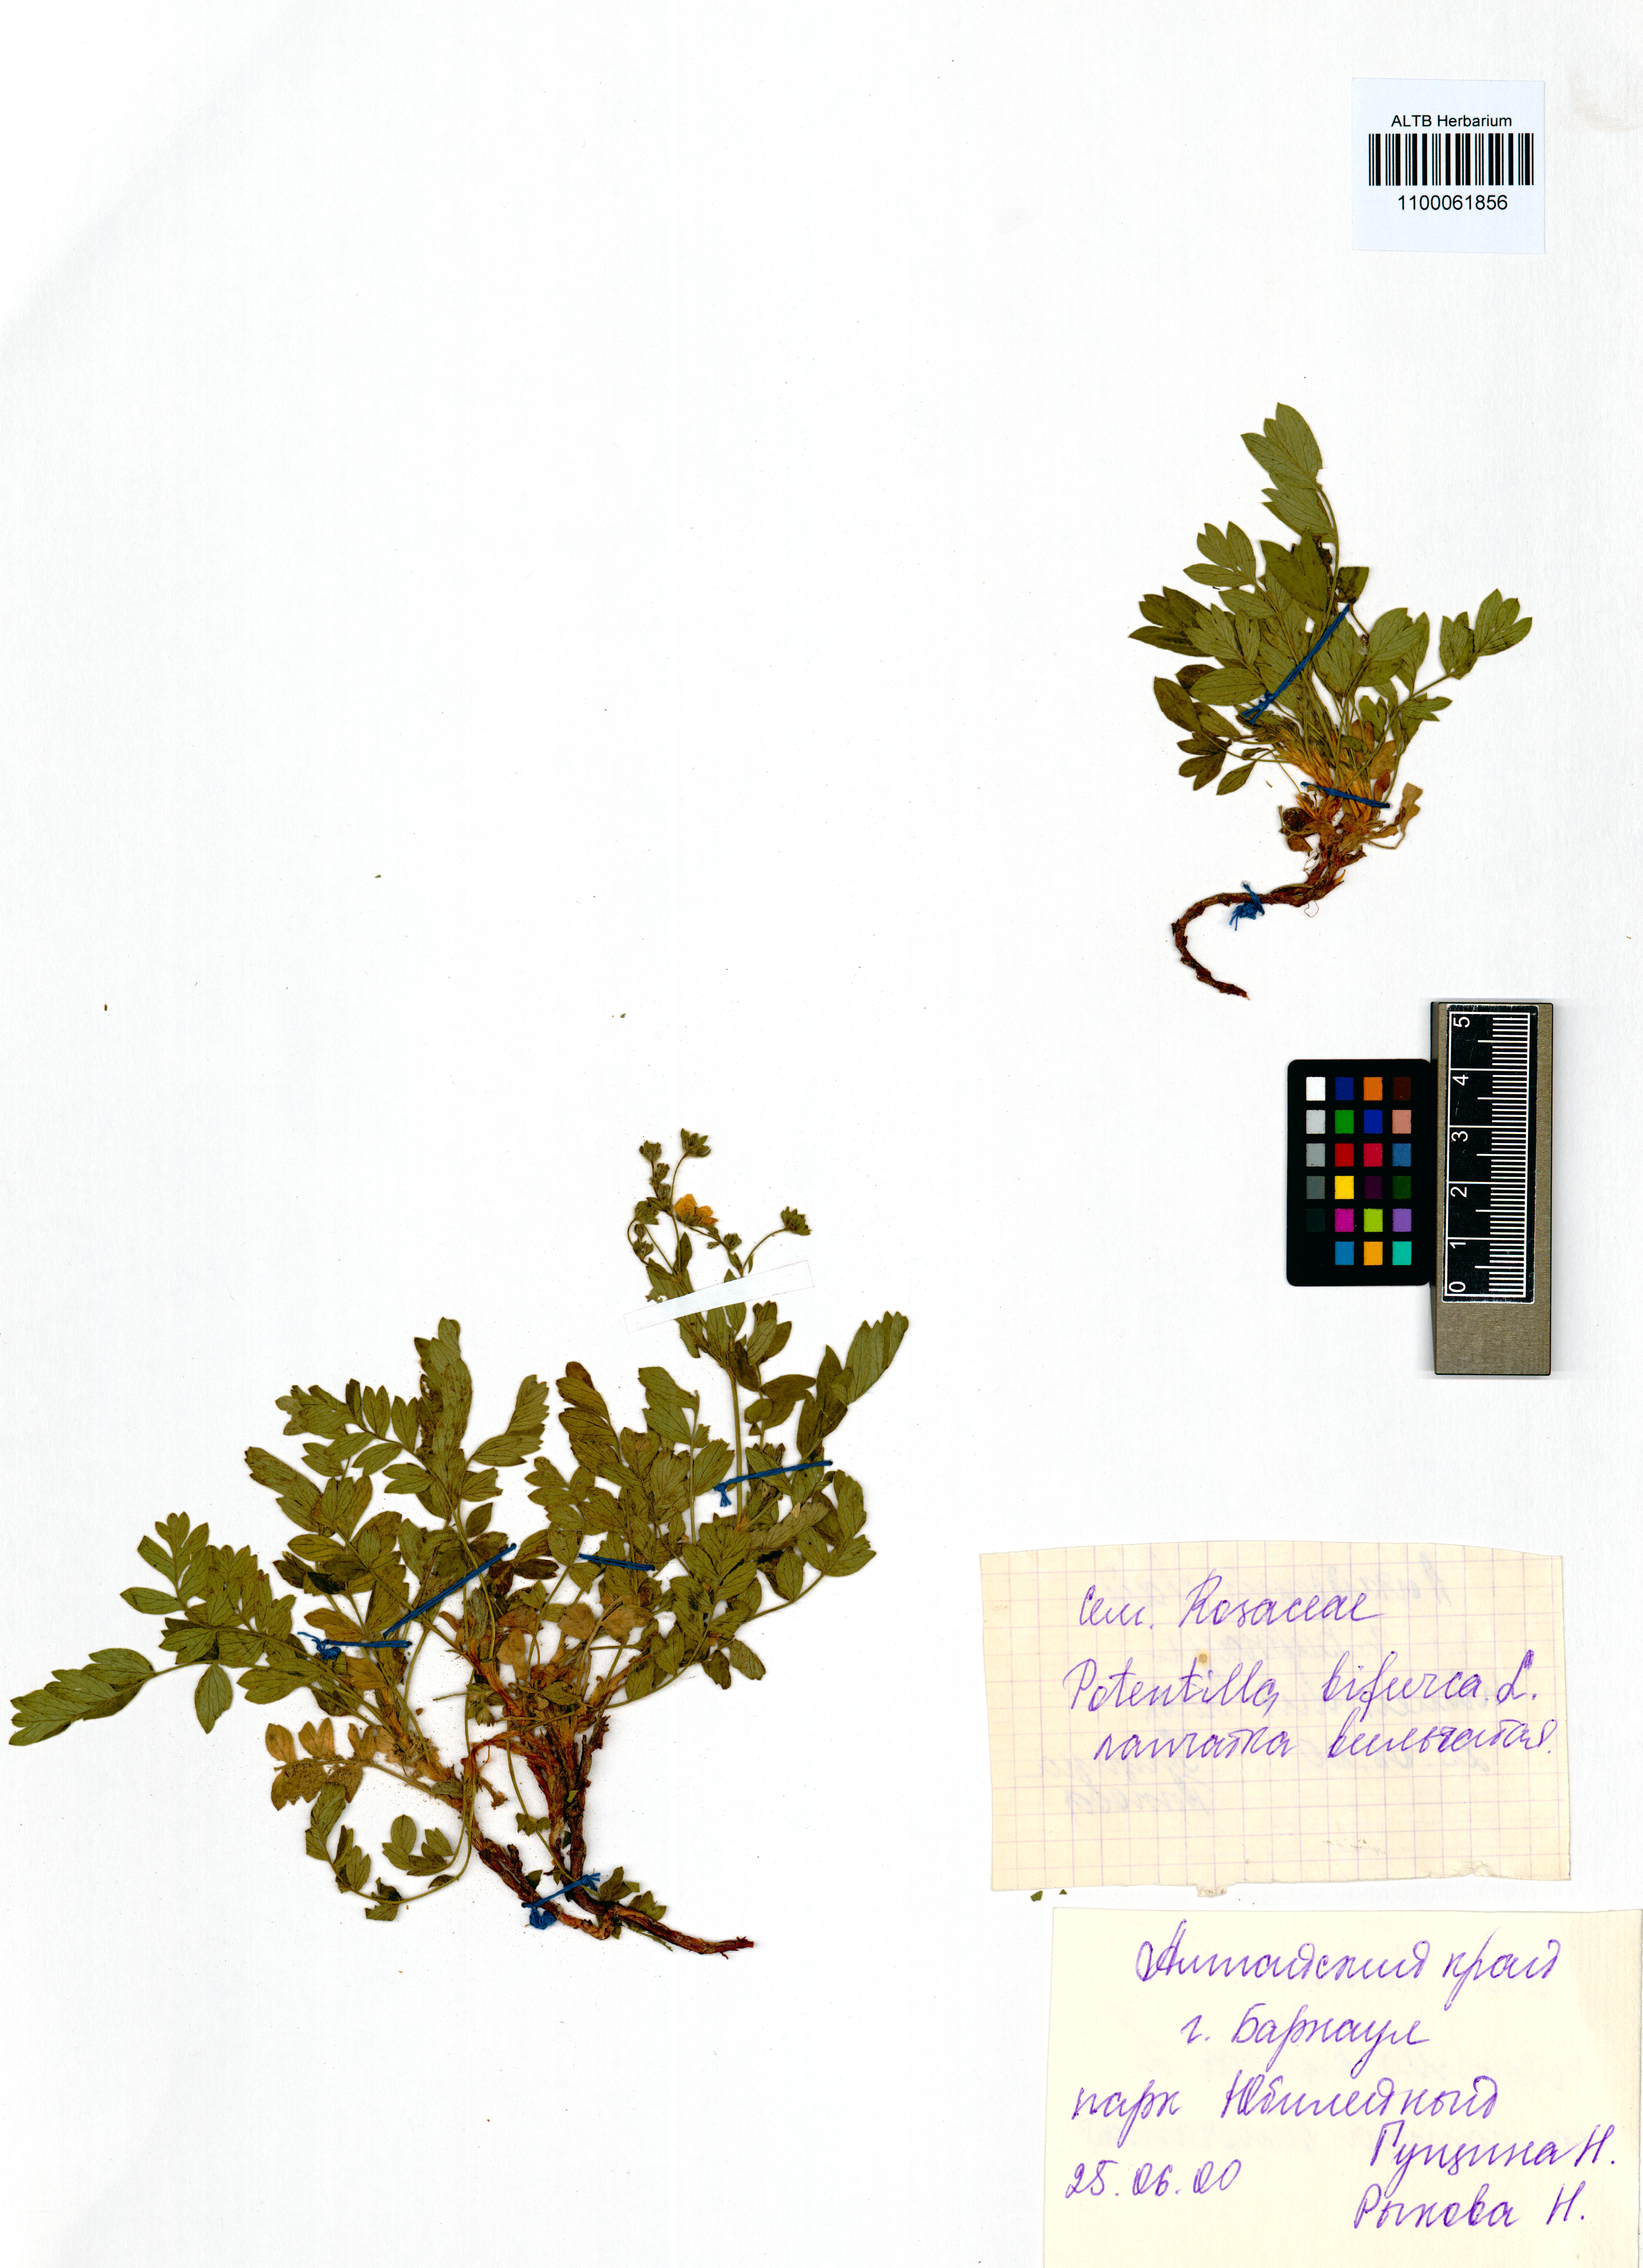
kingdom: Plantae
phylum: Tracheophyta
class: Magnoliopsida
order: Rosales
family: Rosaceae
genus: Sibbaldianthe
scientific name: Sibbaldianthe bifurca
